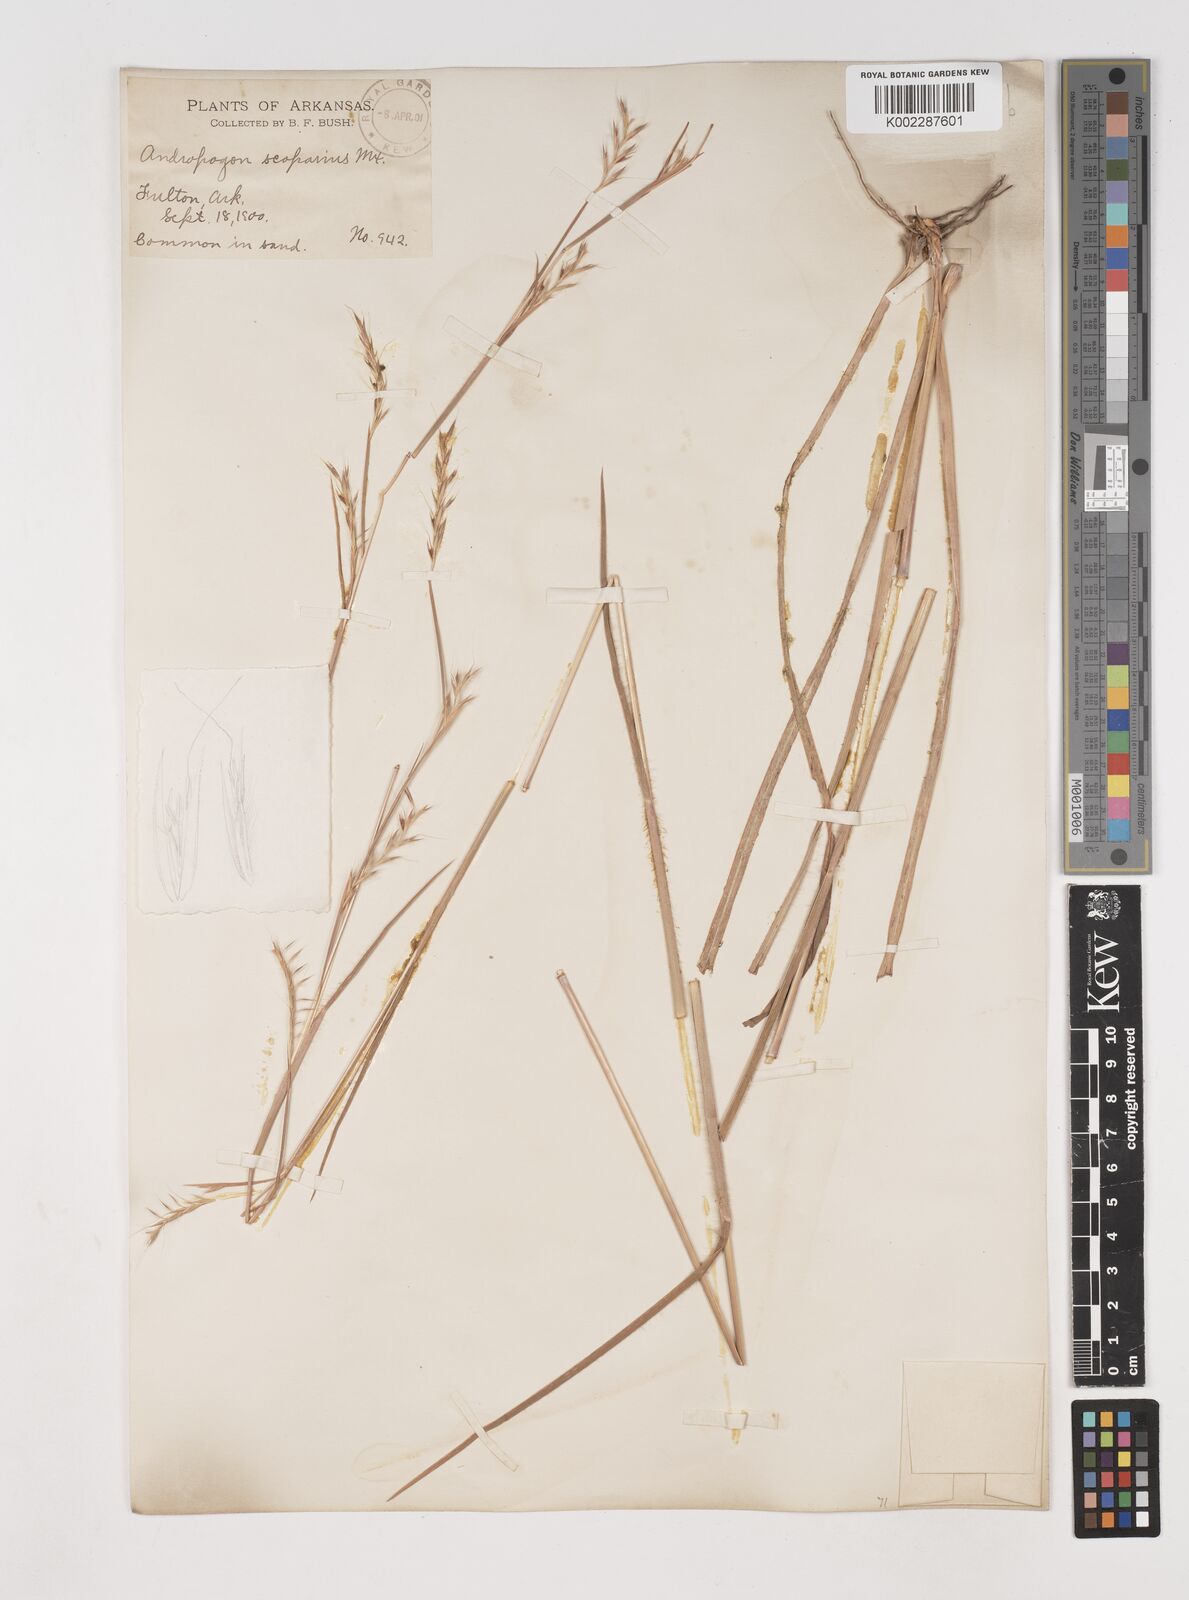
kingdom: Plantae
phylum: Tracheophyta
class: Liliopsida
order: Poales
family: Poaceae
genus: Schizachyrium
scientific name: Schizachyrium scoparium
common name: Little bluestem
